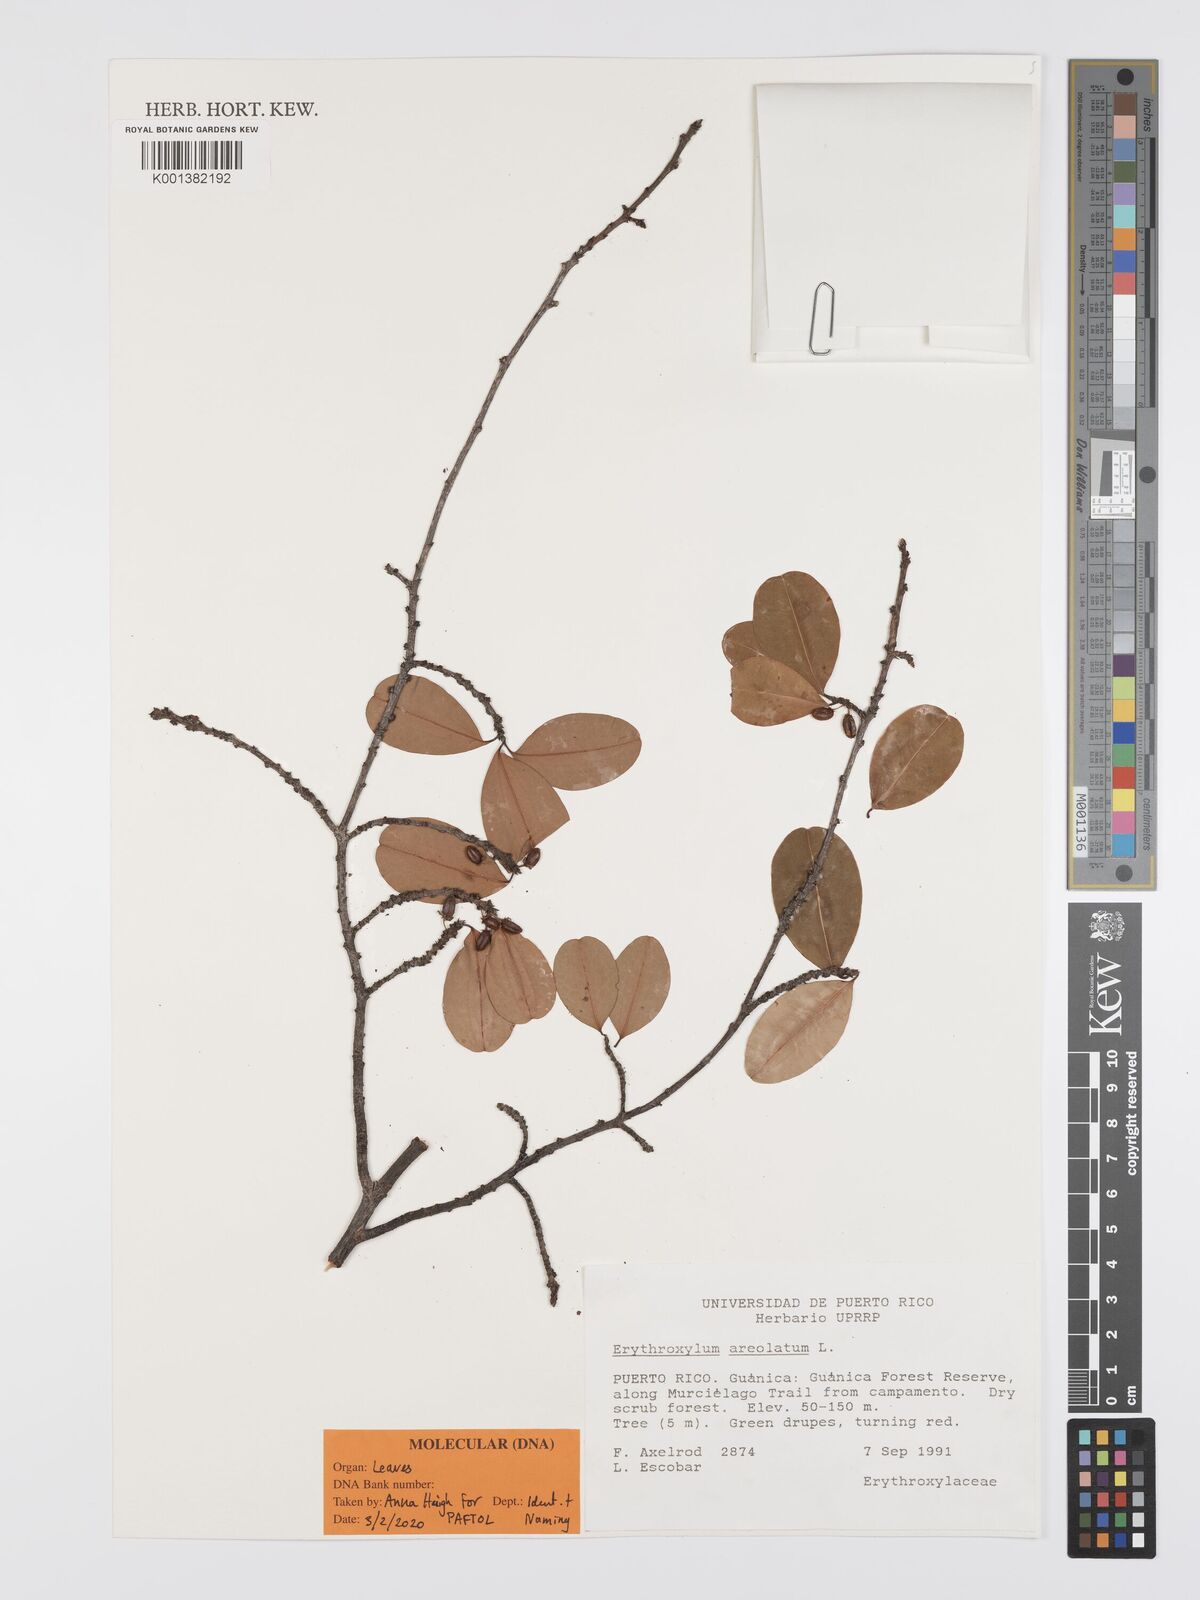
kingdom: Plantae
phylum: Tracheophyta
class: Magnoliopsida
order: Malpighiales
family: Erythroxylaceae
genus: Erythroxylum
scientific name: Erythroxylum areolatum
